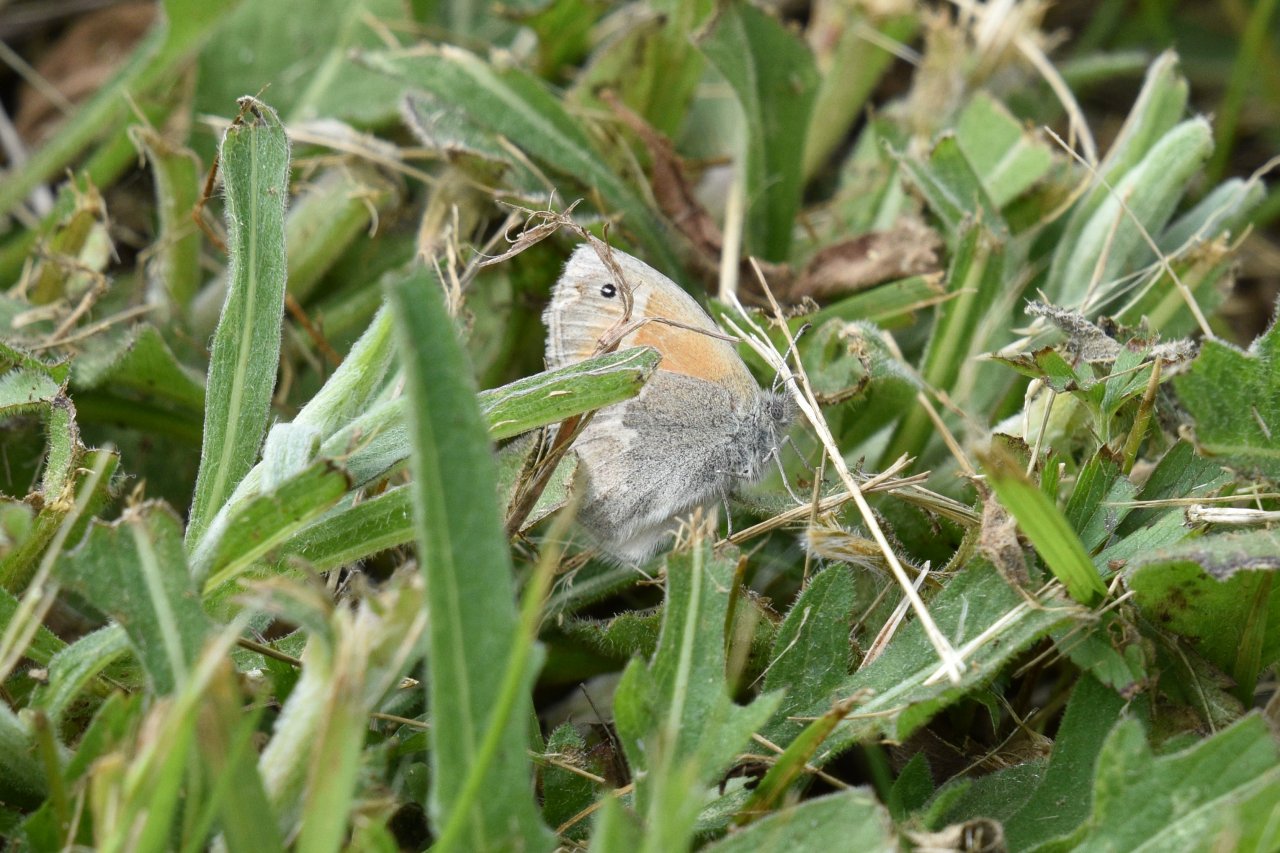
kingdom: Animalia
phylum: Arthropoda
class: Insecta
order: Lepidoptera
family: Nymphalidae
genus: Coenonympha
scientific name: Coenonympha tullia
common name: Large Heath
